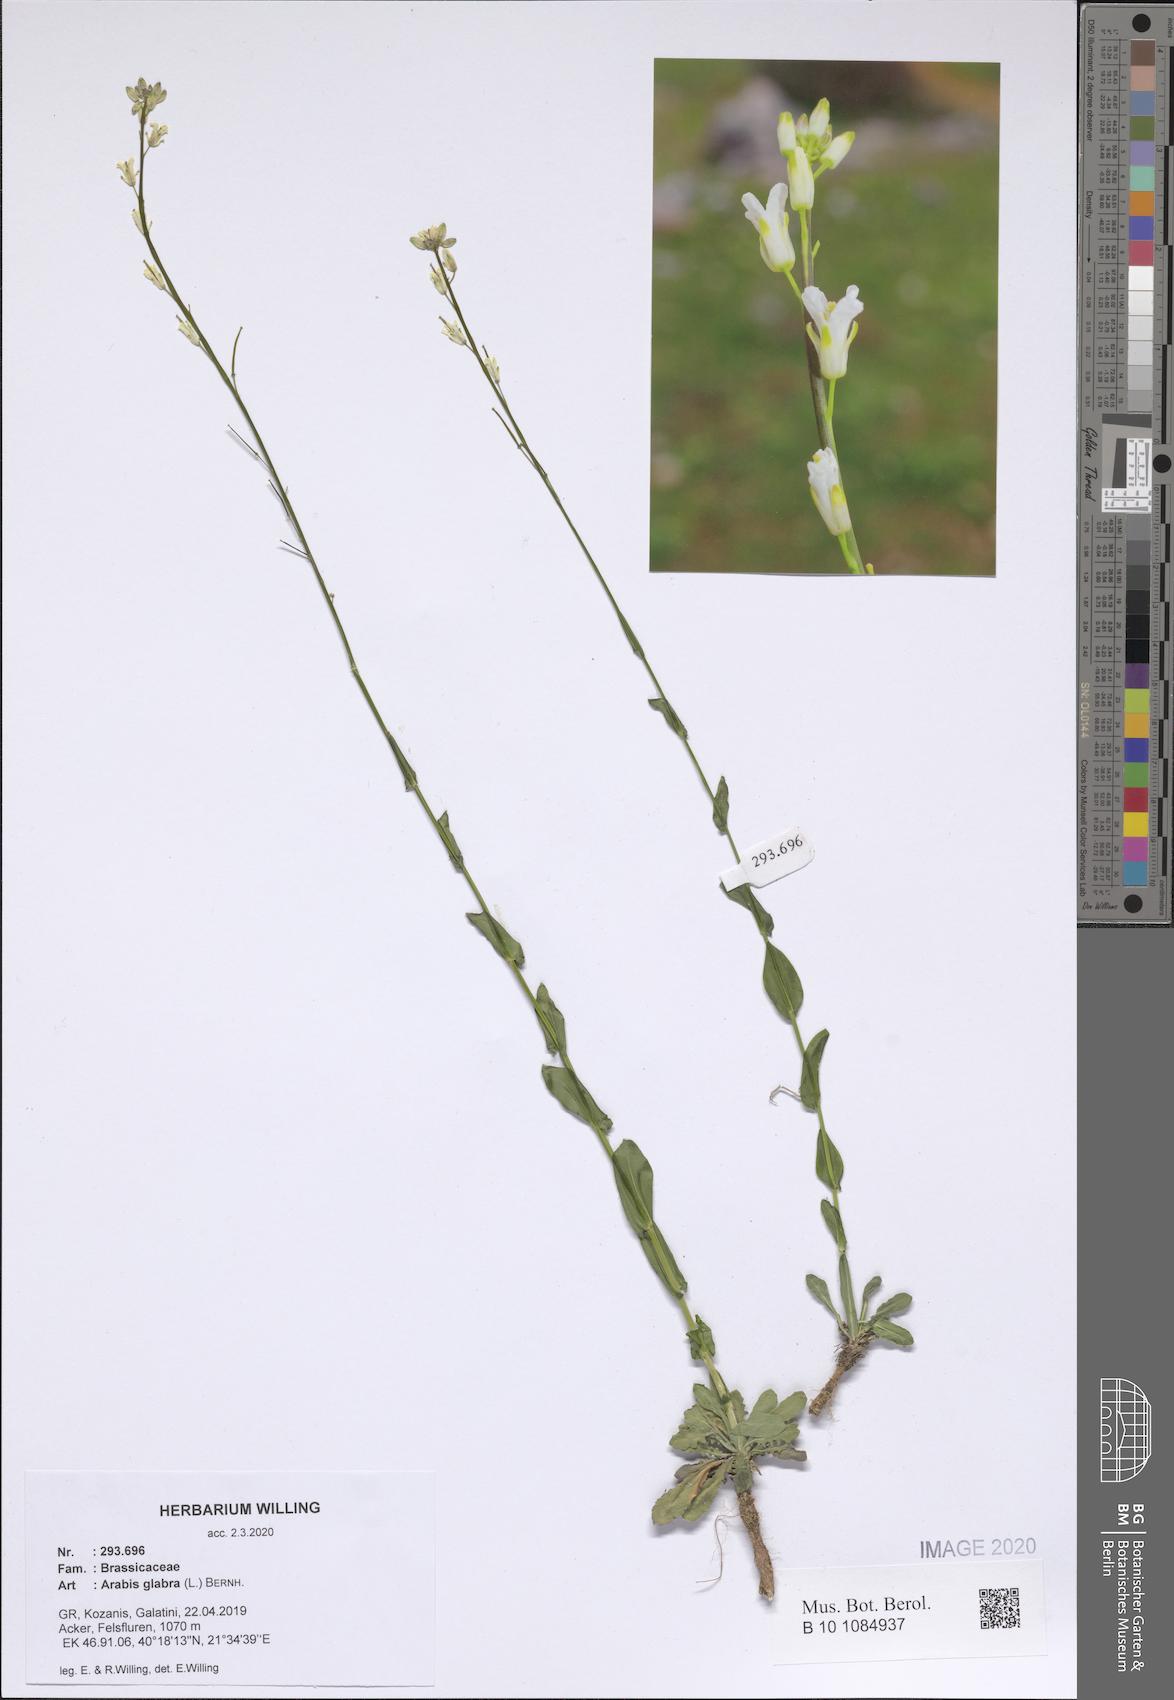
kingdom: Plantae
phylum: Tracheophyta
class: Magnoliopsida
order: Brassicales
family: Brassicaceae
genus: Turritis
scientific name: Turritis glabra
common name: Tower rockcress
